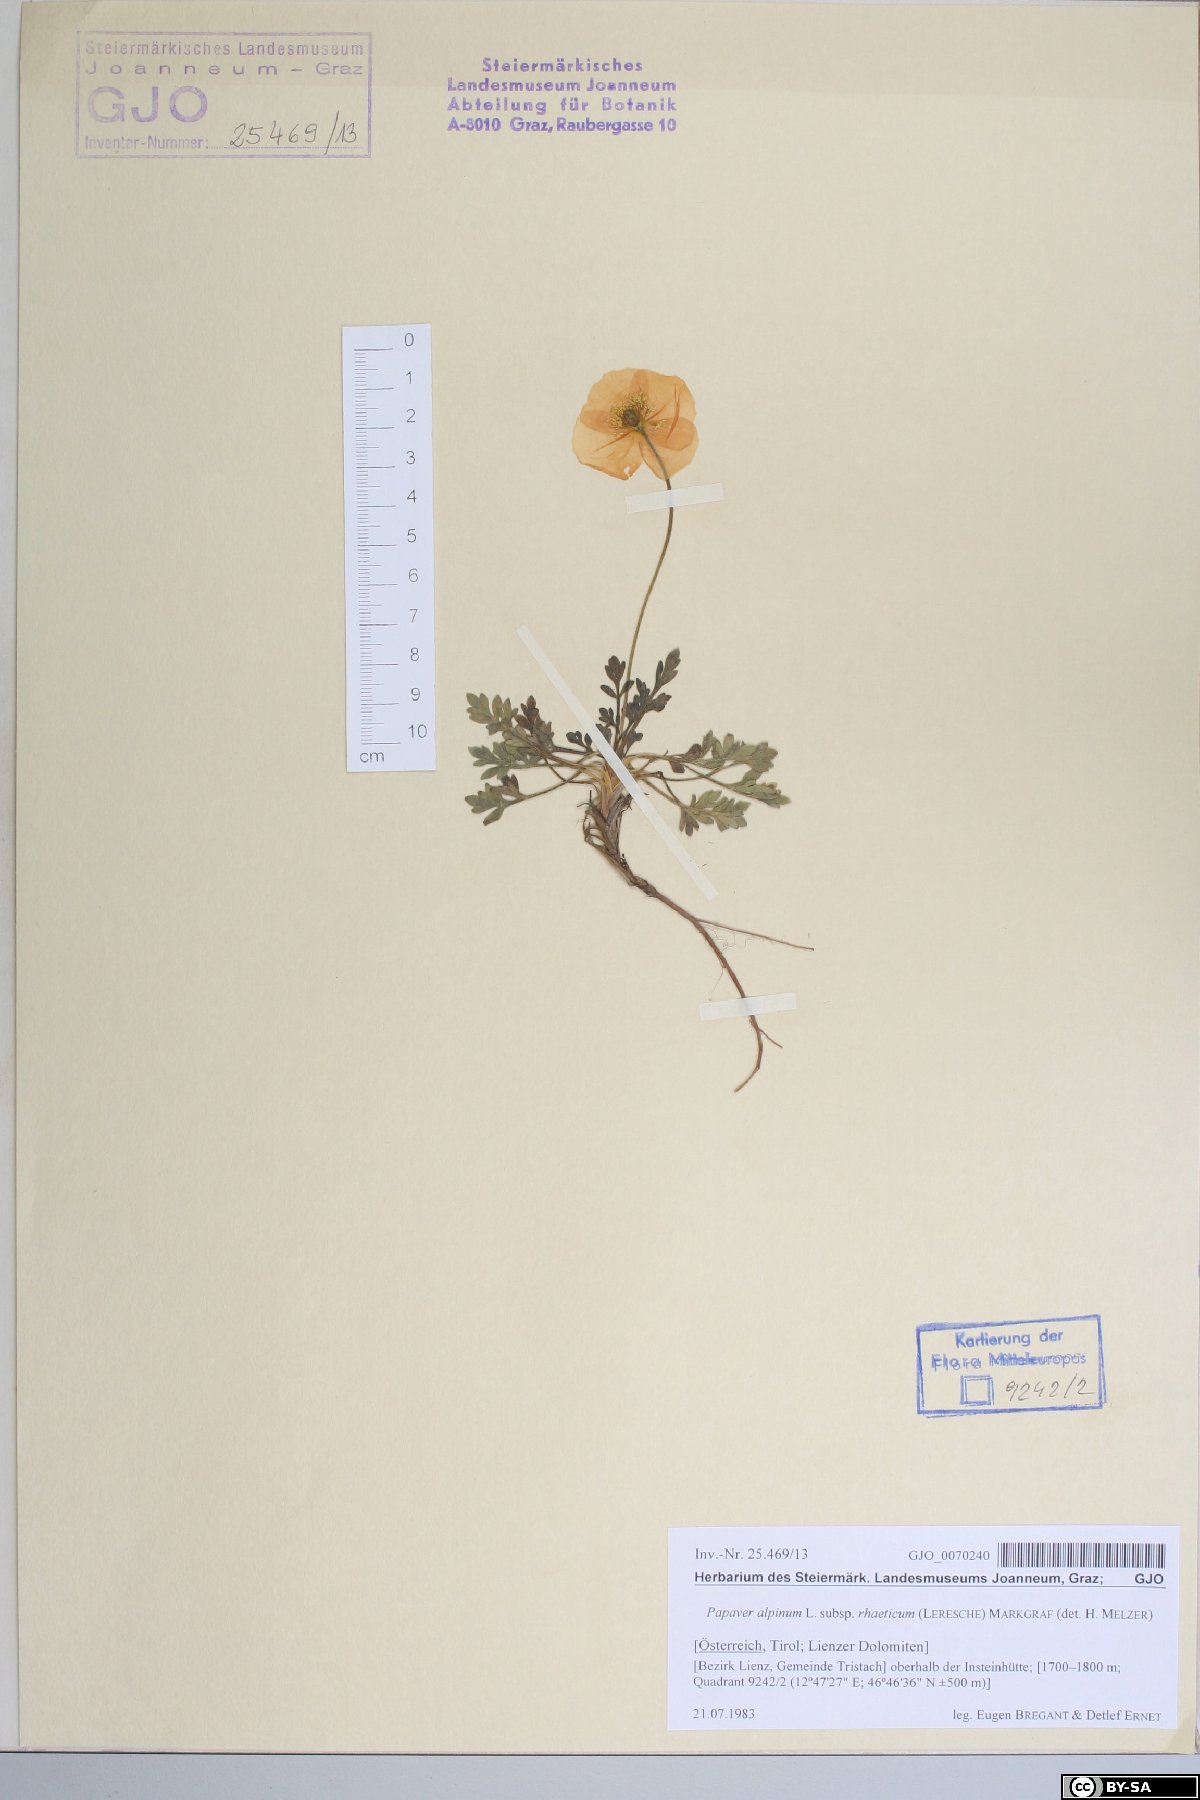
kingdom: Plantae
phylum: Tracheophyta
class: Magnoliopsida
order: Ranunculales
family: Papaveraceae
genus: Papaver
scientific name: Papaver alpinum
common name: Austrian poppy
